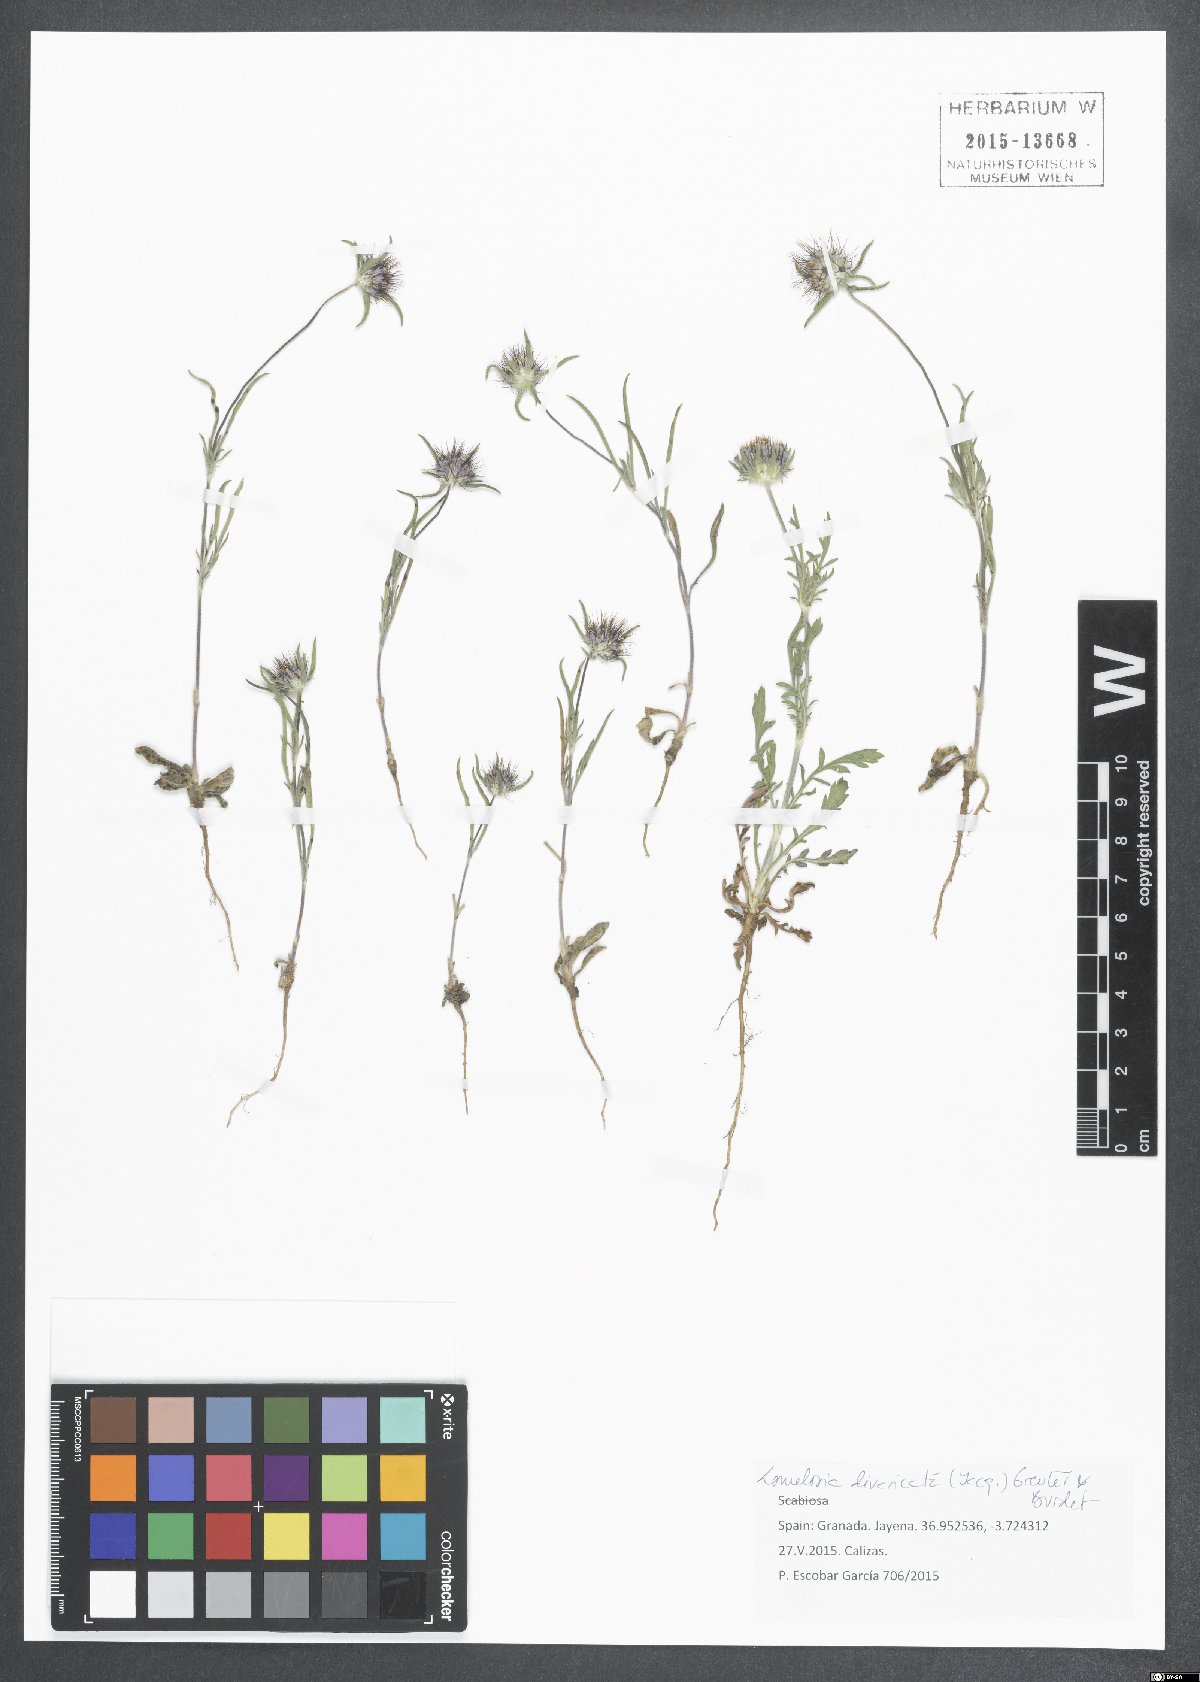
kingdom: Plantae
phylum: Tracheophyta
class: Magnoliopsida
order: Dipsacales
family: Caprifoliaceae
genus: Lomelosia
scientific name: Lomelosia divaricata
